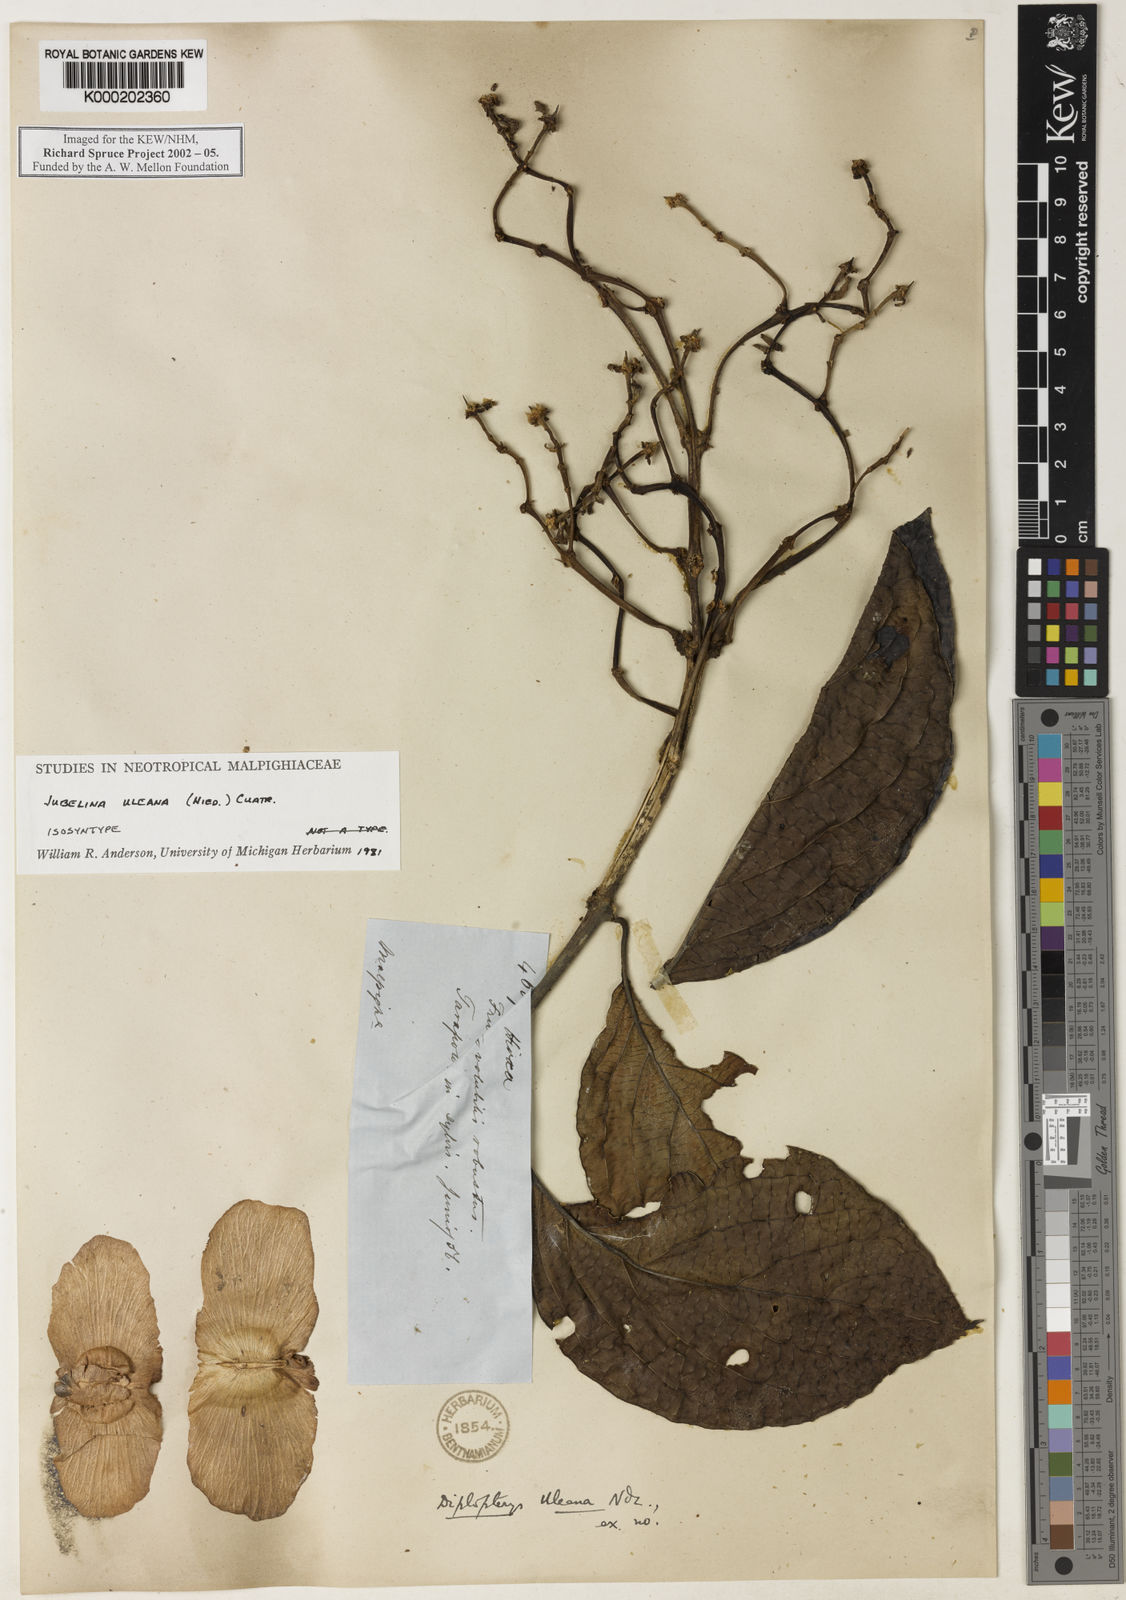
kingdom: Plantae
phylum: Tracheophyta
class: Magnoliopsida
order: Malpighiales
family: Malpighiaceae
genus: Jubelina
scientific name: Jubelina uleana
